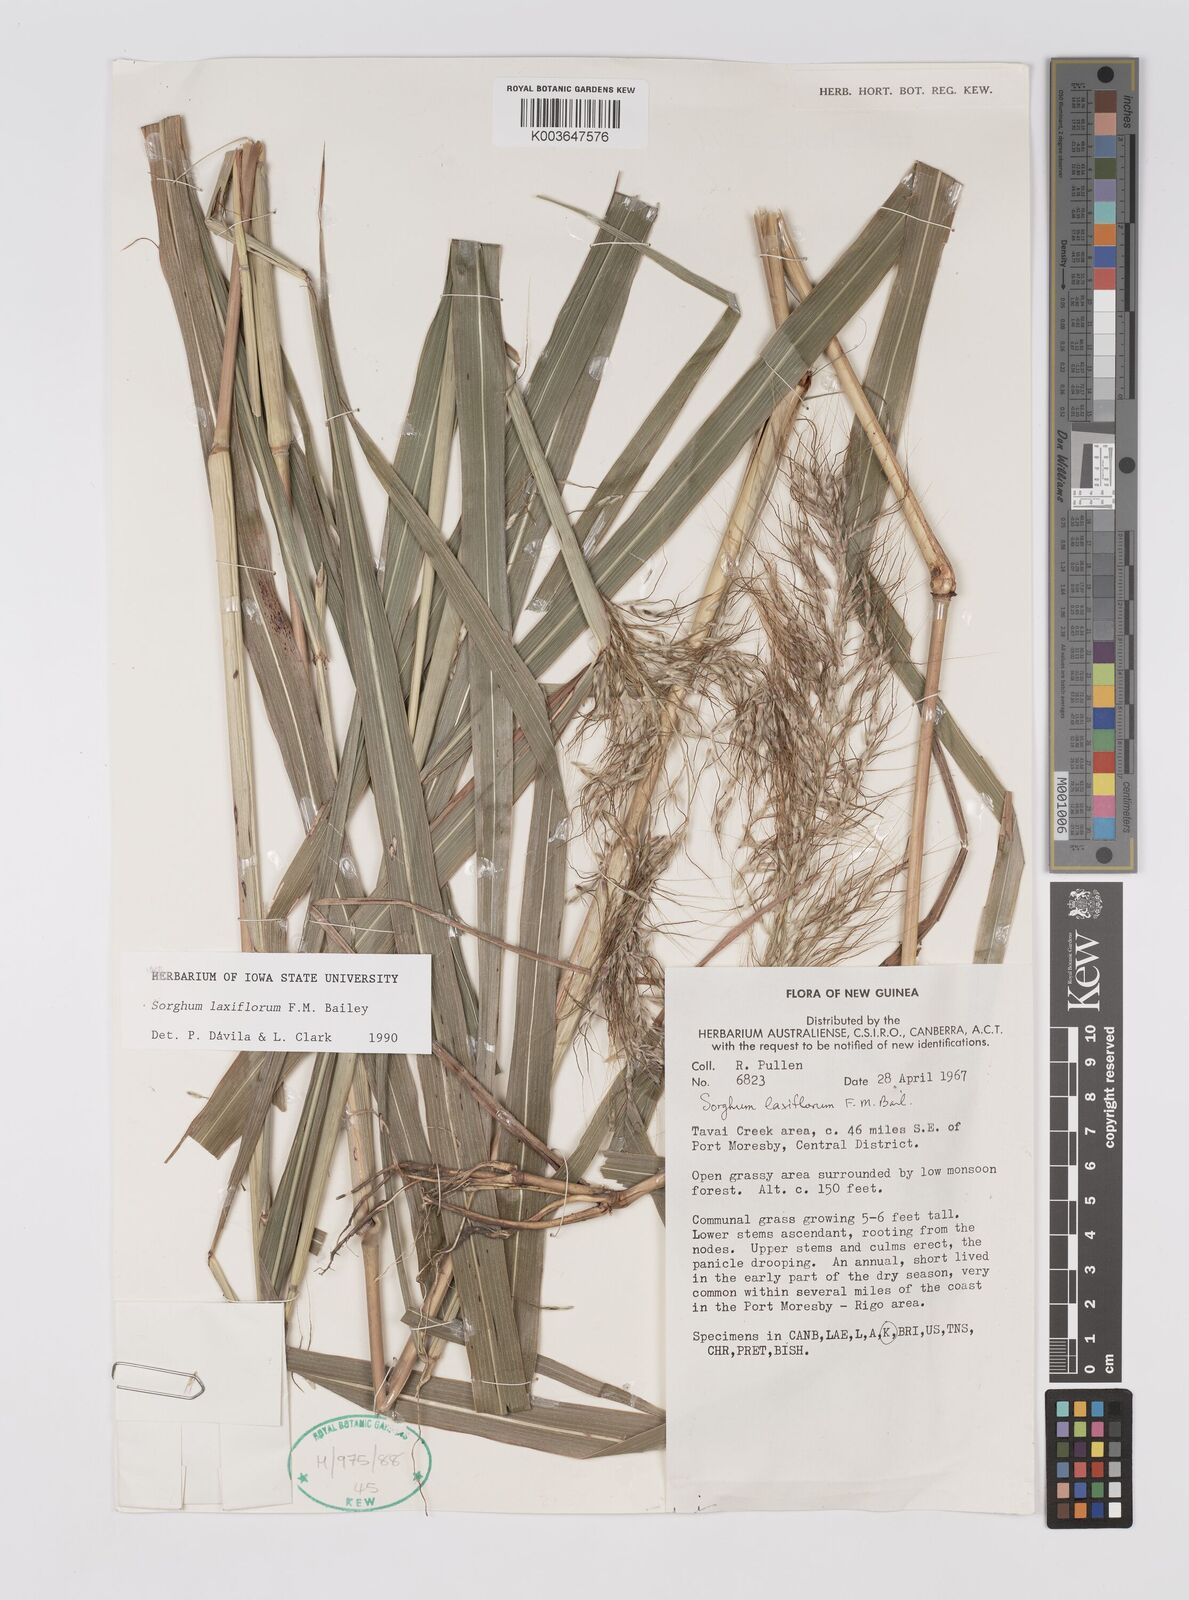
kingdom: Plantae
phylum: Tracheophyta
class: Liliopsida
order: Poales
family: Poaceae
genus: Sorghum
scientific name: Sorghum laxiflorum
